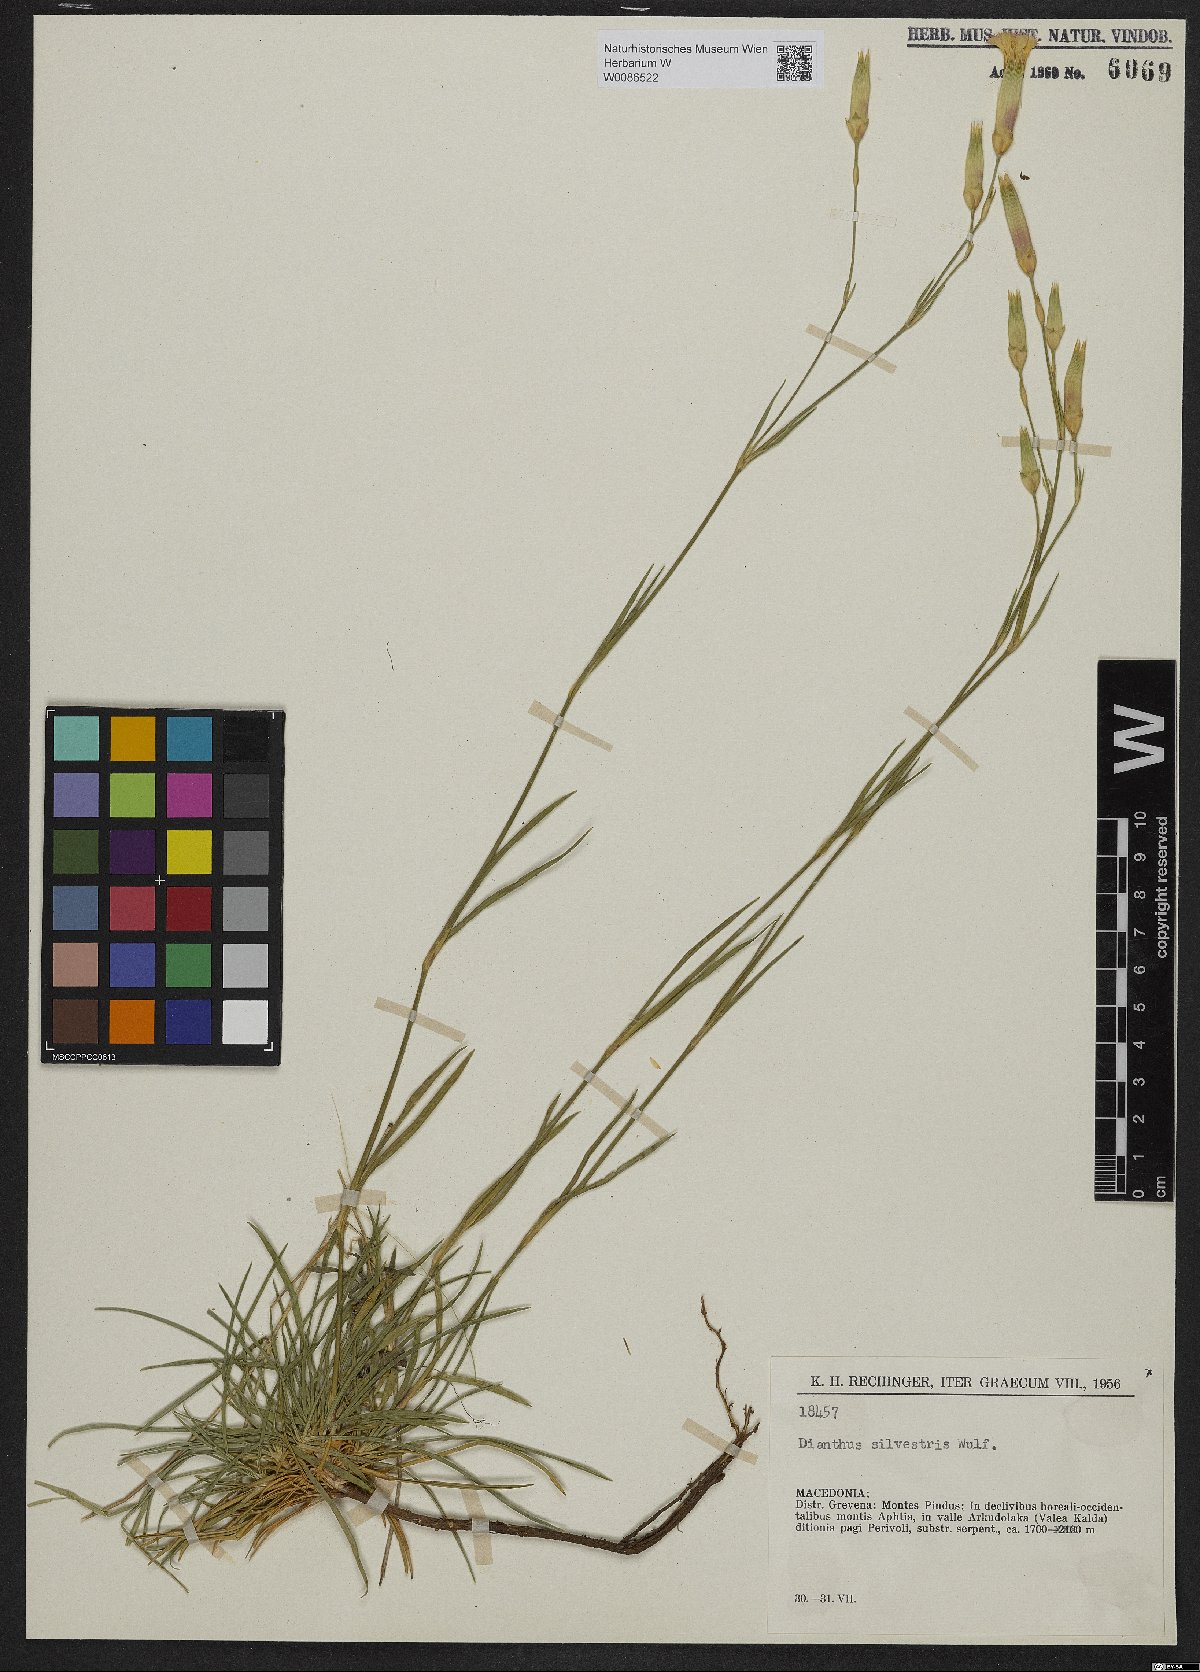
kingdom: Plantae
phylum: Tracheophyta
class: Magnoliopsida
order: Caryophyllales
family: Caryophyllaceae
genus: Dianthus
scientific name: Dianthus sylvestris
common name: Wood pink
